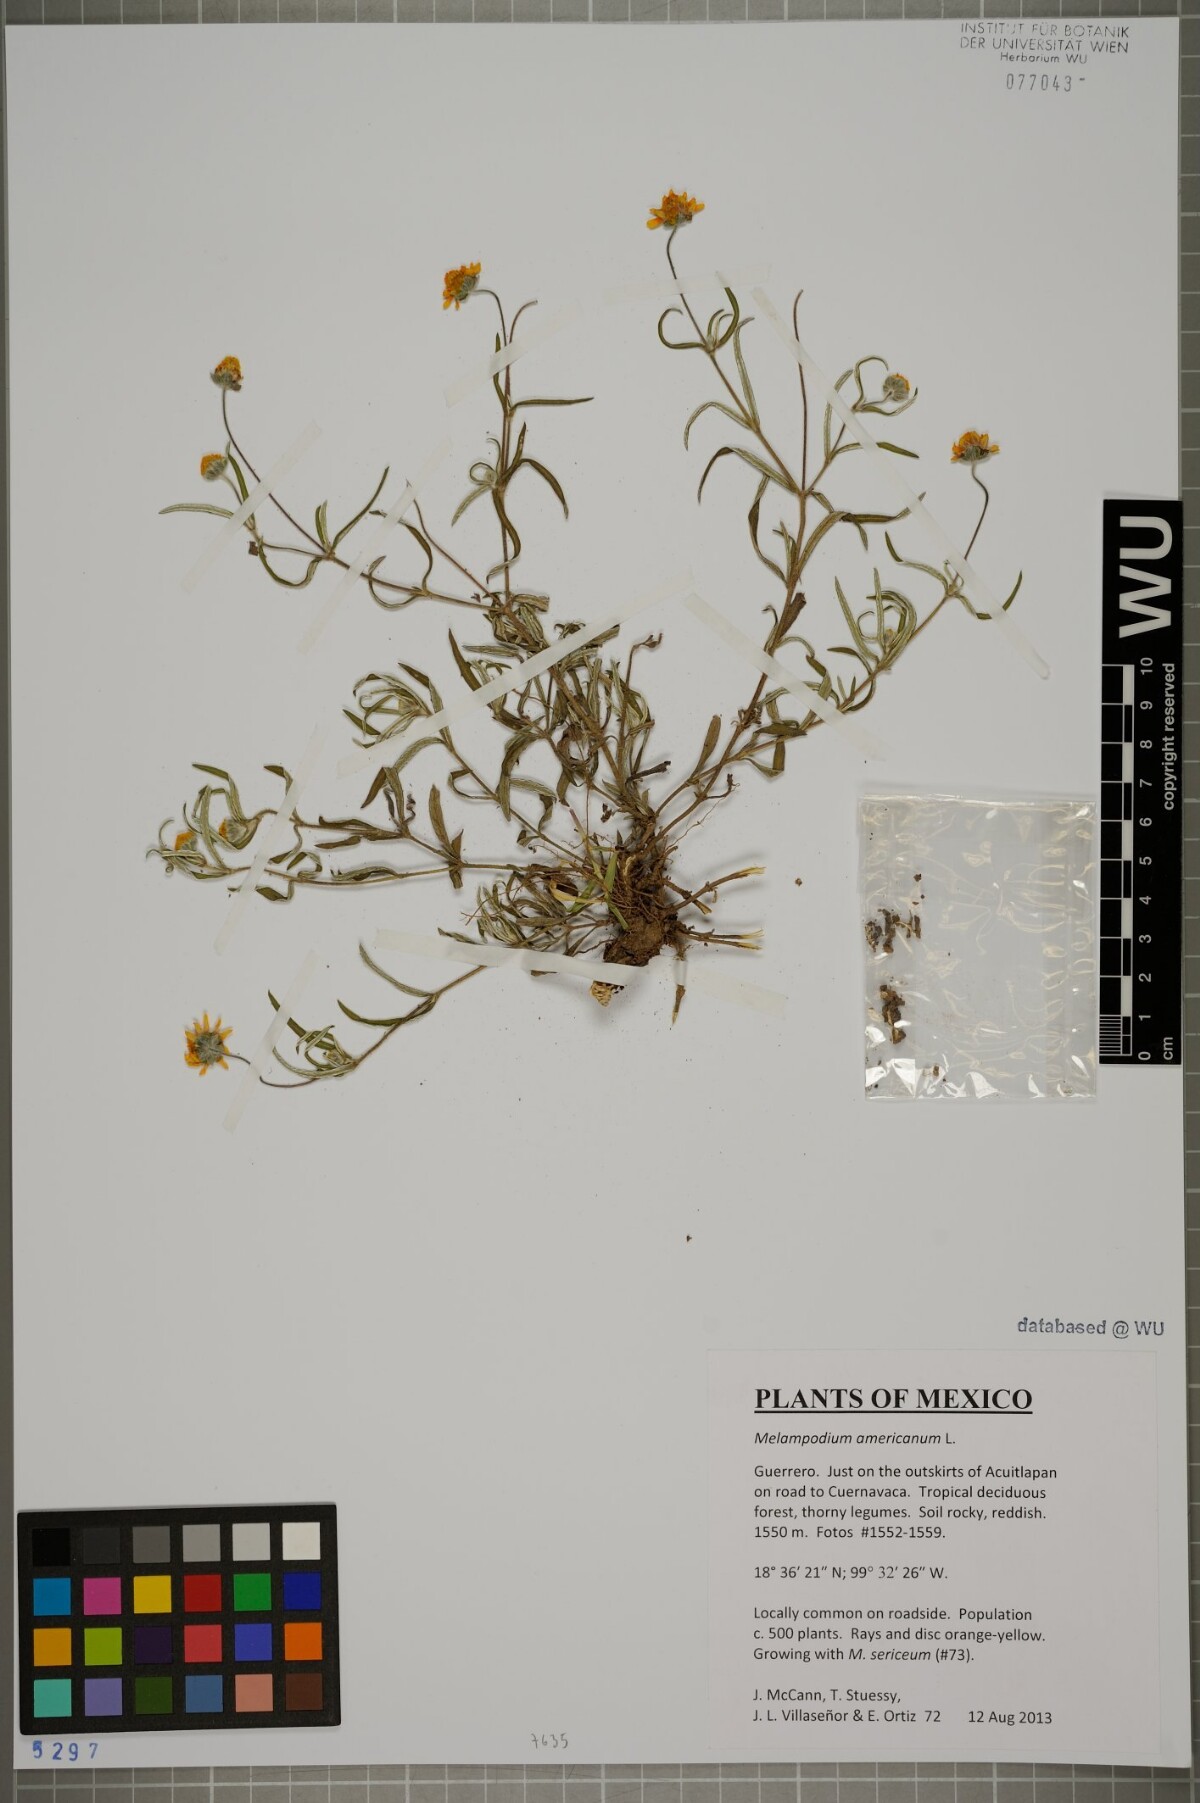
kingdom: Plantae
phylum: Tracheophyta
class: Magnoliopsida
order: Asterales
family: Asteraceae
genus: Melampodium
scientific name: Melampodium americanum
